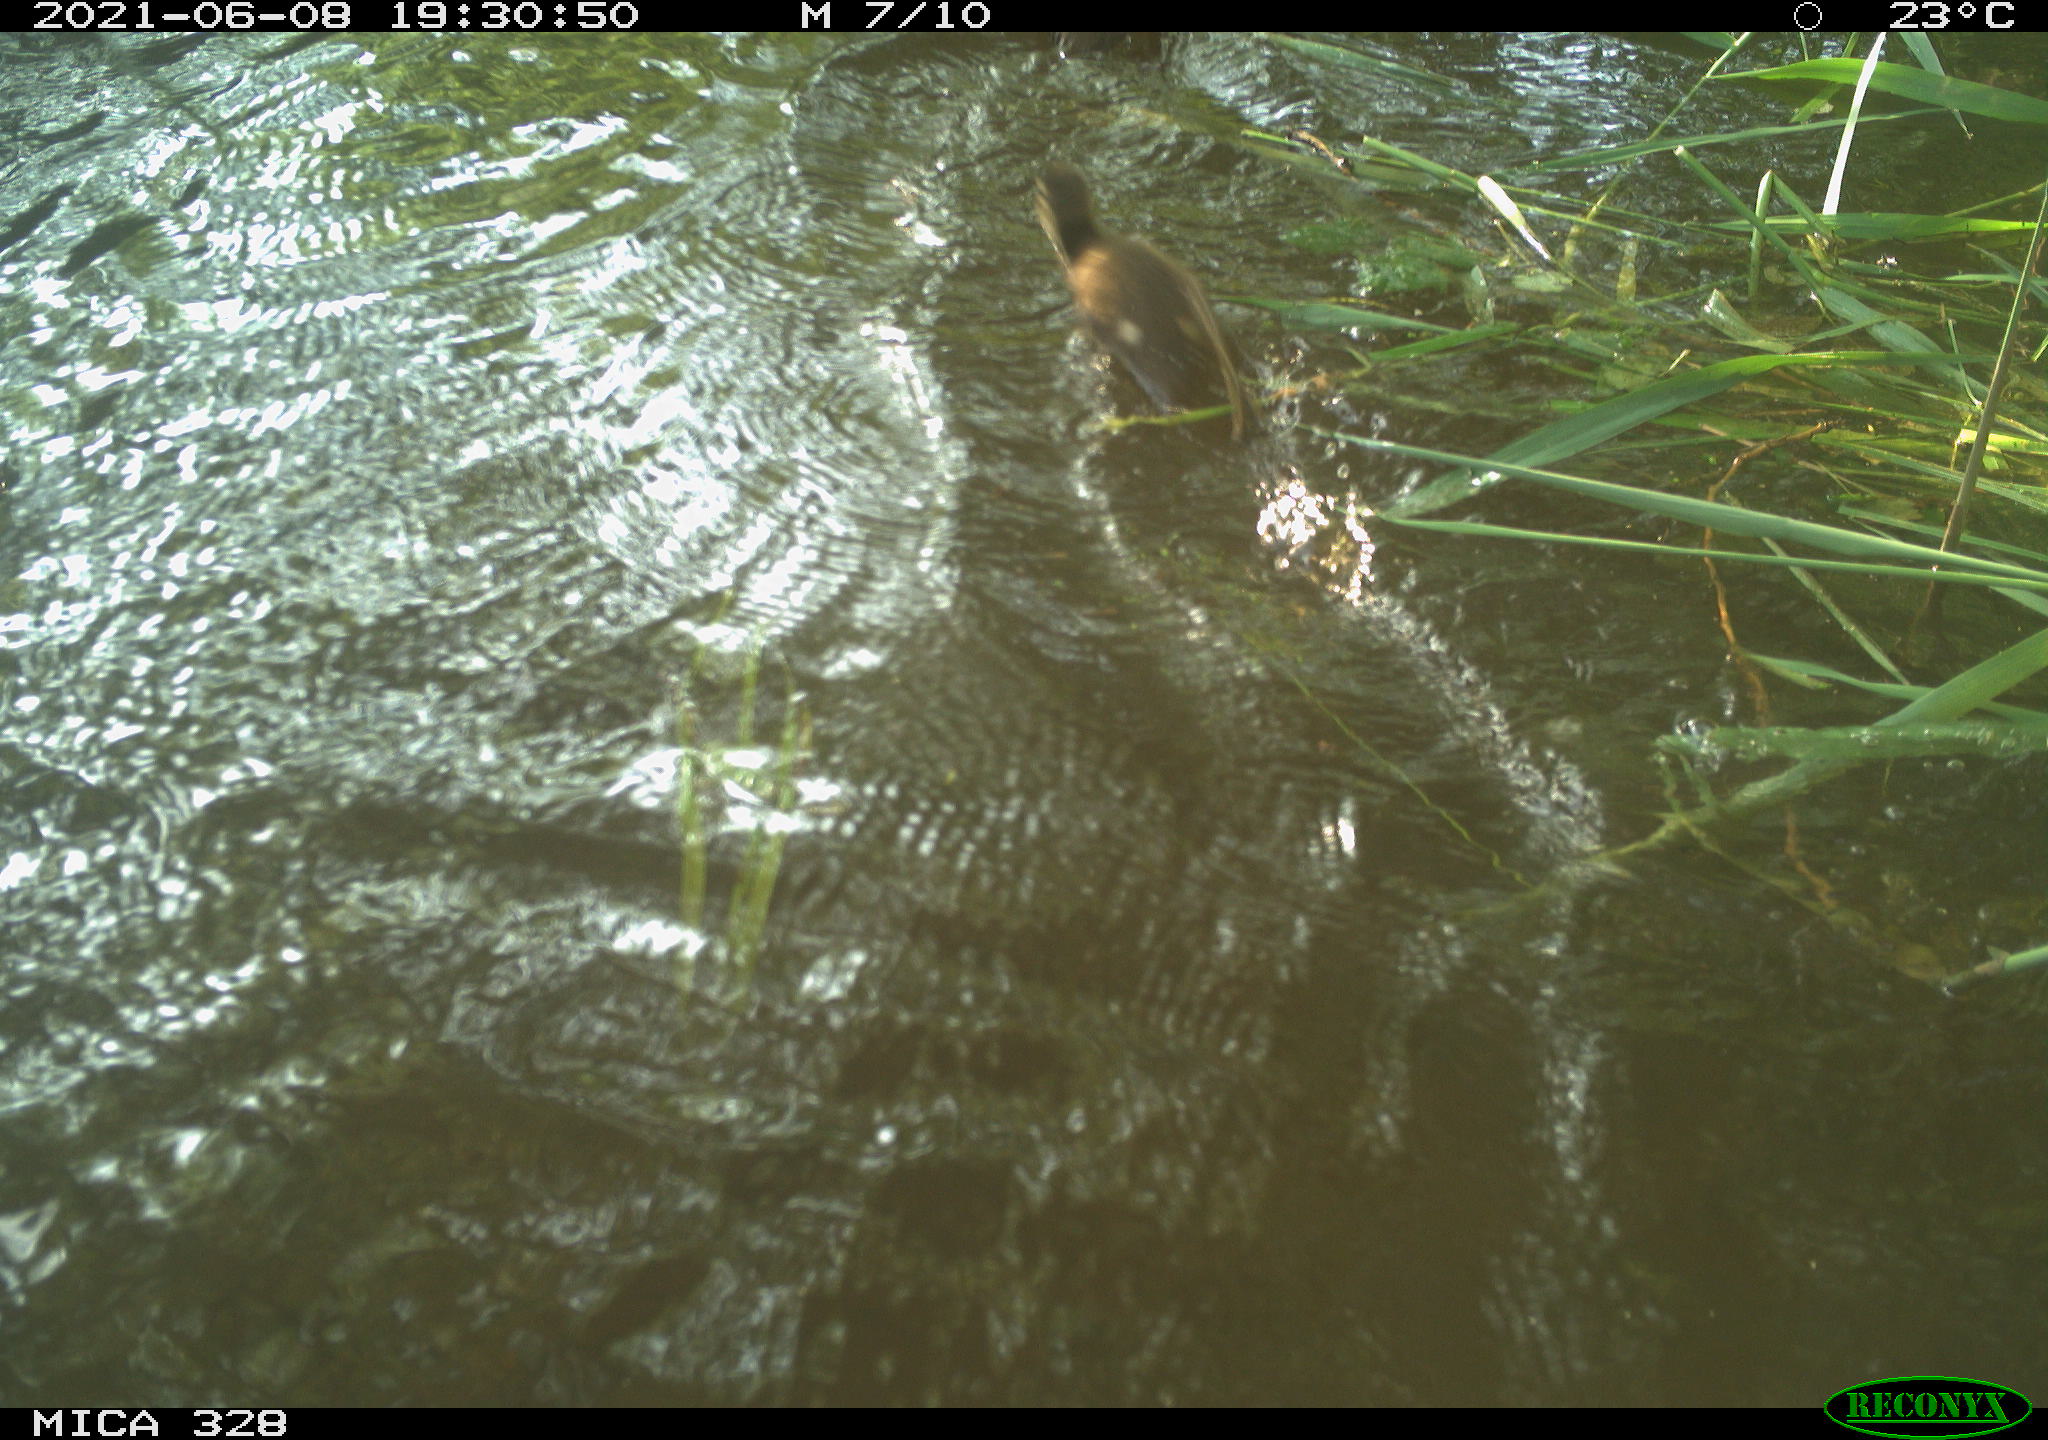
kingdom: Animalia
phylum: Chordata
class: Aves
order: Anseriformes
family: Anatidae
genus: Aix
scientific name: Aix galericulata
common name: Mandarin duck
